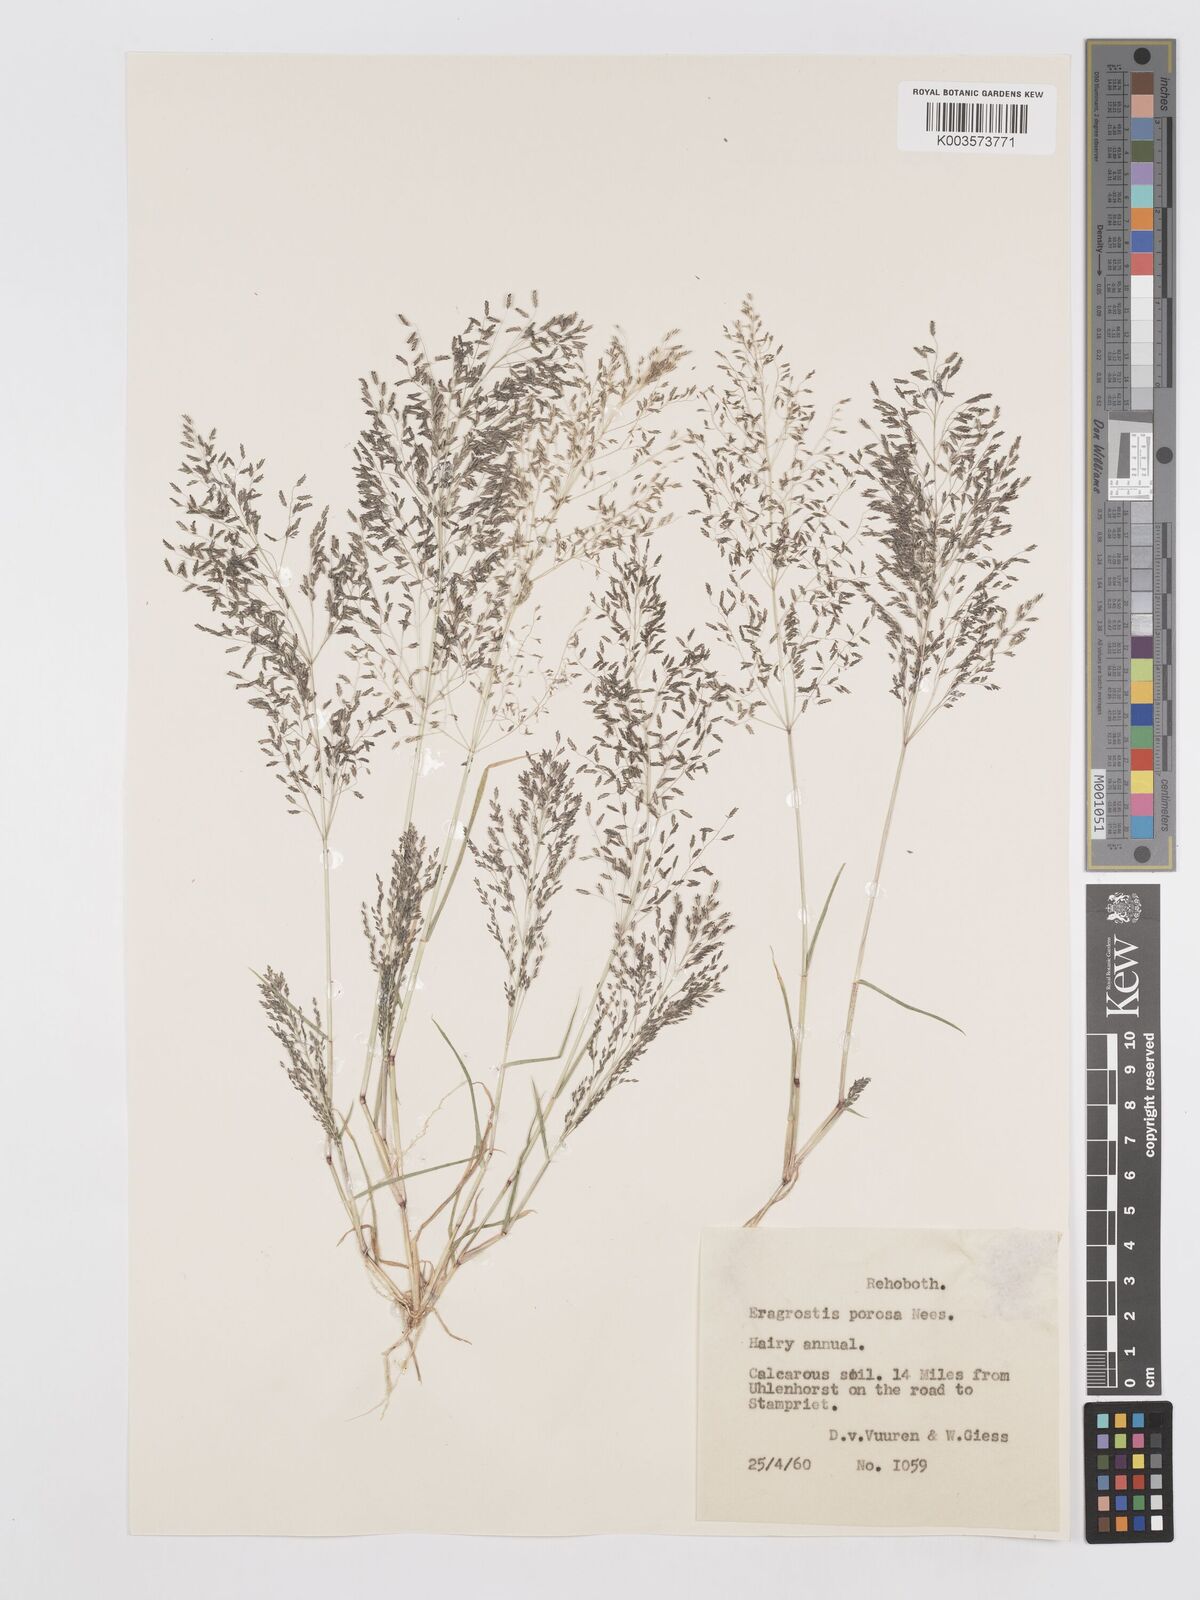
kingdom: Plantae
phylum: Tracheophyta
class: Liliopsida
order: Poales
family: Poaceae
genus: Eragrostis
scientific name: Eragrostis porosa
